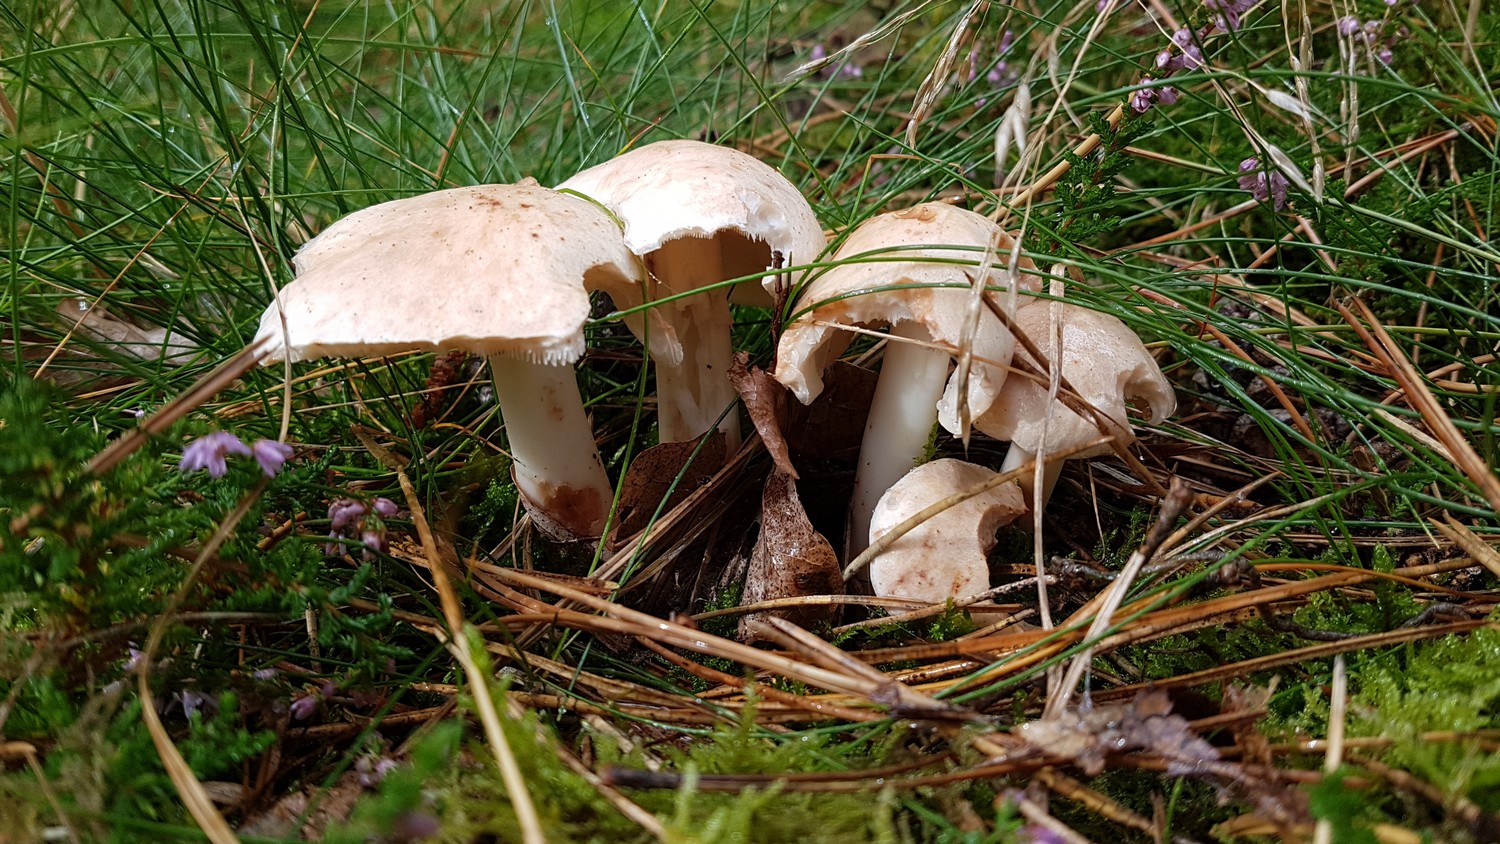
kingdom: Fungi
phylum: Basidiomycota
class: Agaricomycetes
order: Agaricales
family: Omphalotaceae
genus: Rhodocollybia
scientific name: Rhodocollybia maculata
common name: plettet fladhat
